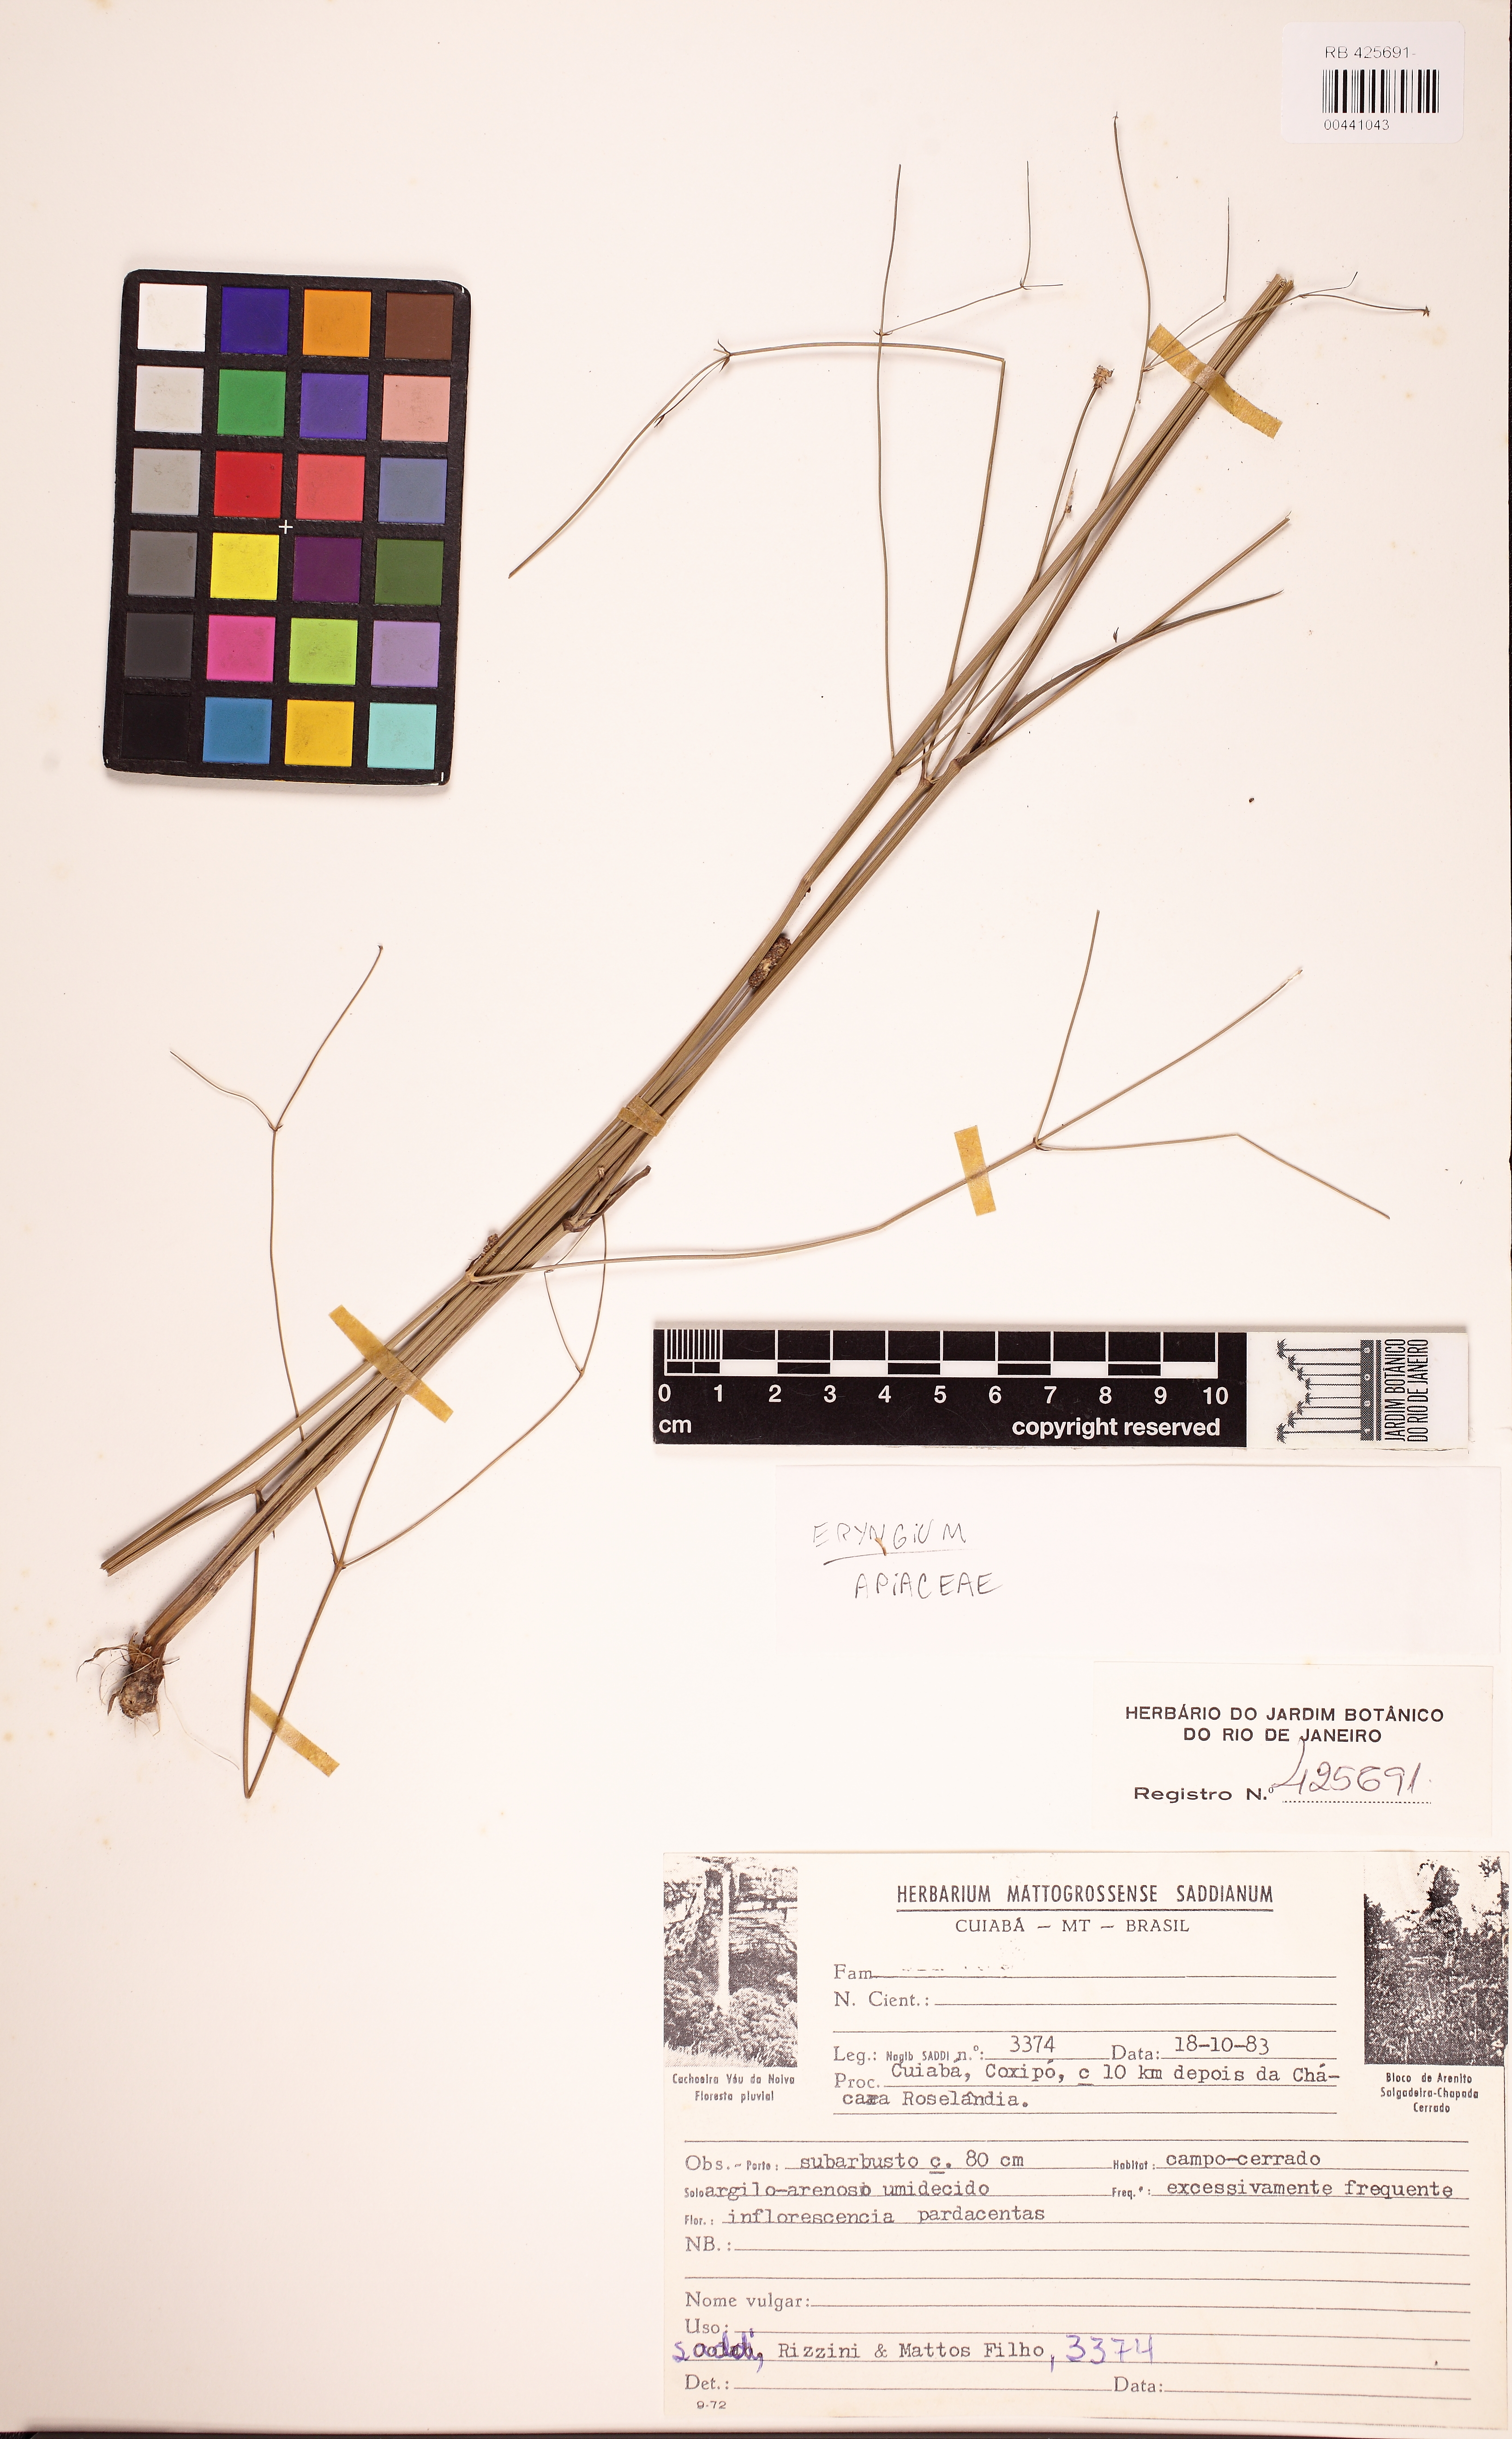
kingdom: Plantae
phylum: Tracheophyta
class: Magnoliopsida
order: Apiales
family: Apiaceae
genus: Eryngium
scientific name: Eryngium ebracteatum
